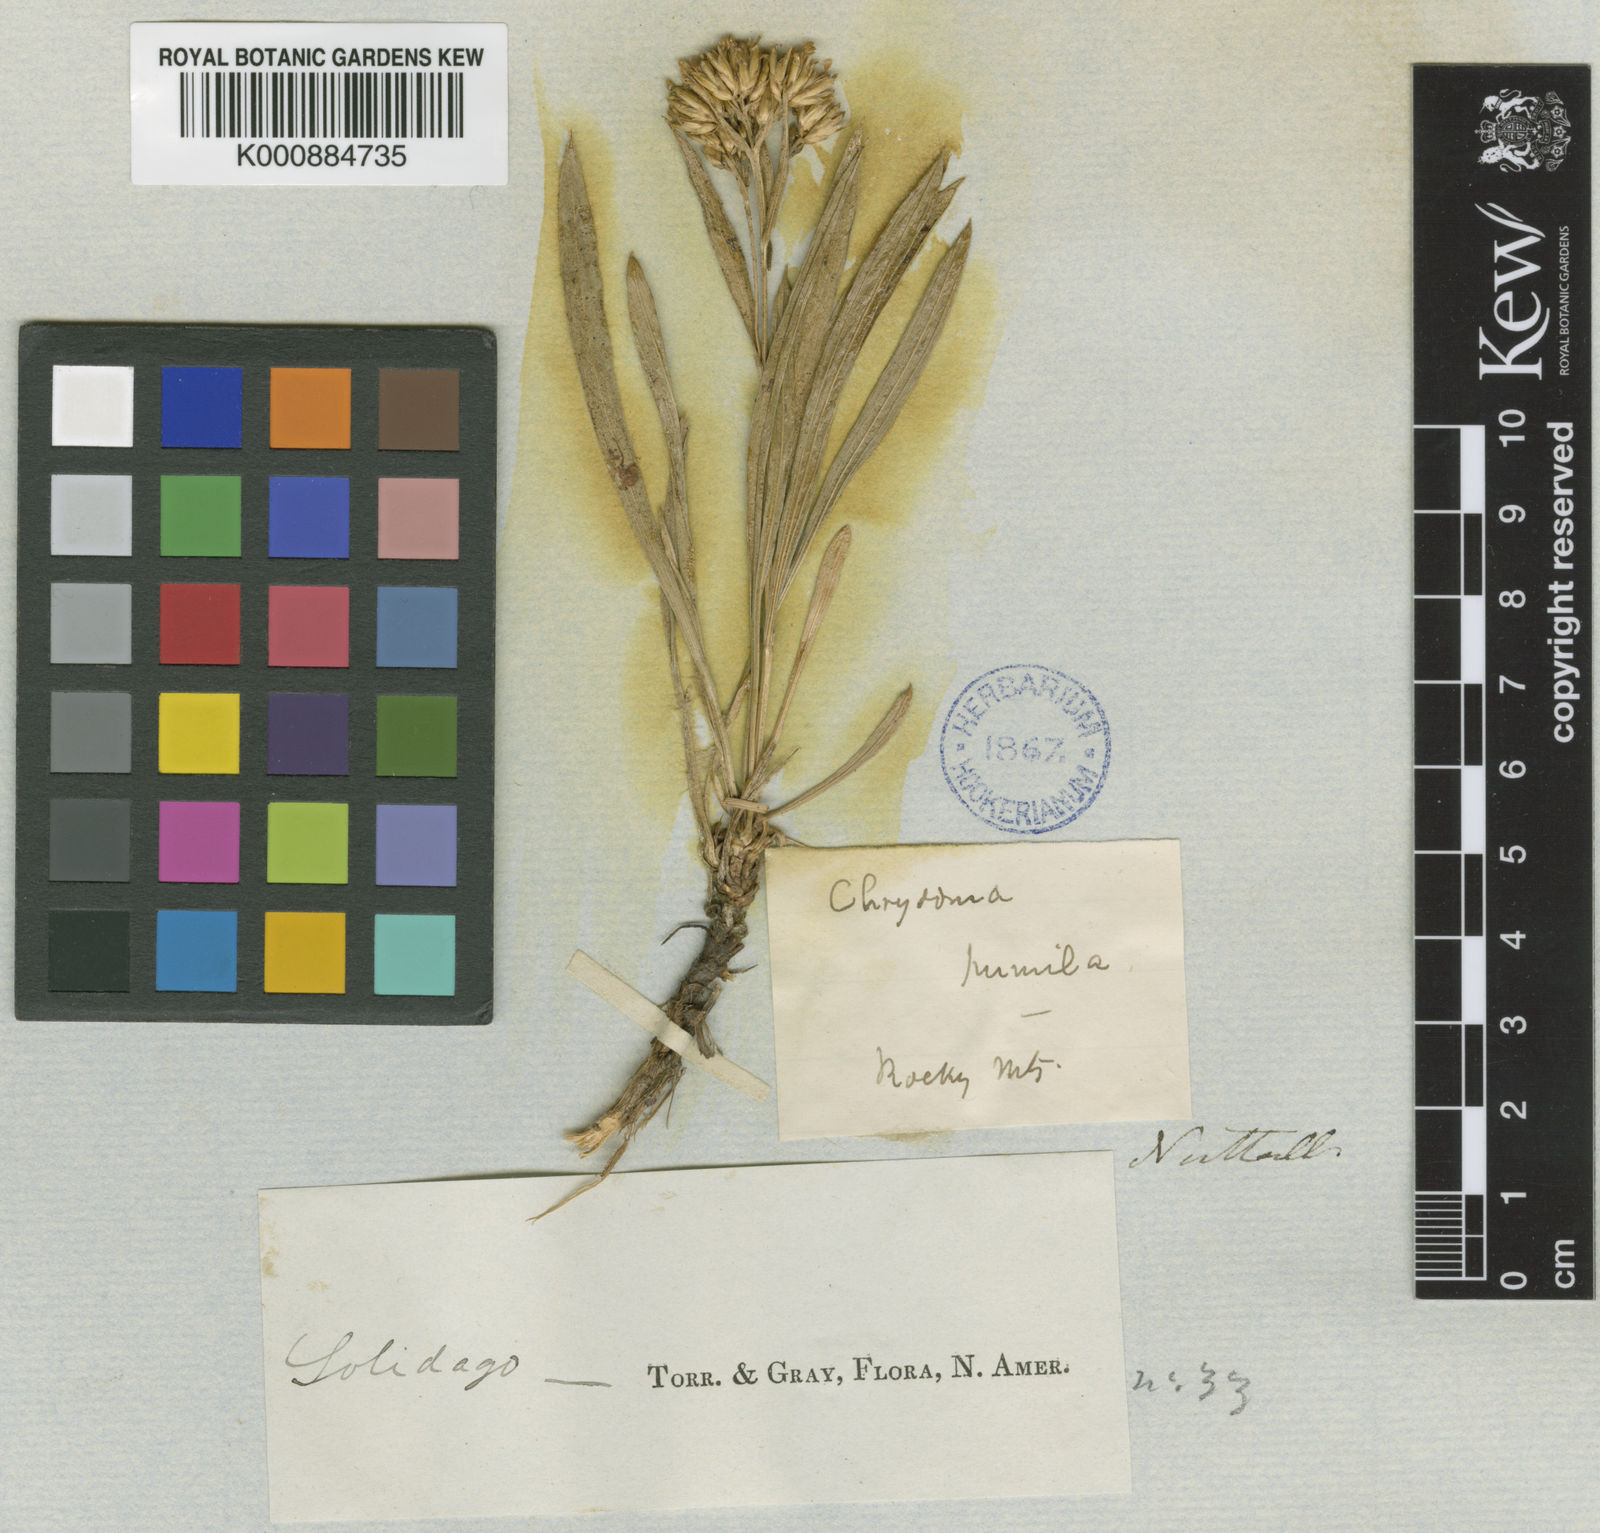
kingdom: Plantae
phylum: Tracheophyta
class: Magnoliopsida
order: Asterales
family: Asteraceae
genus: Petradoria
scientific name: Petradoria pumila
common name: Rock-goldenrod
